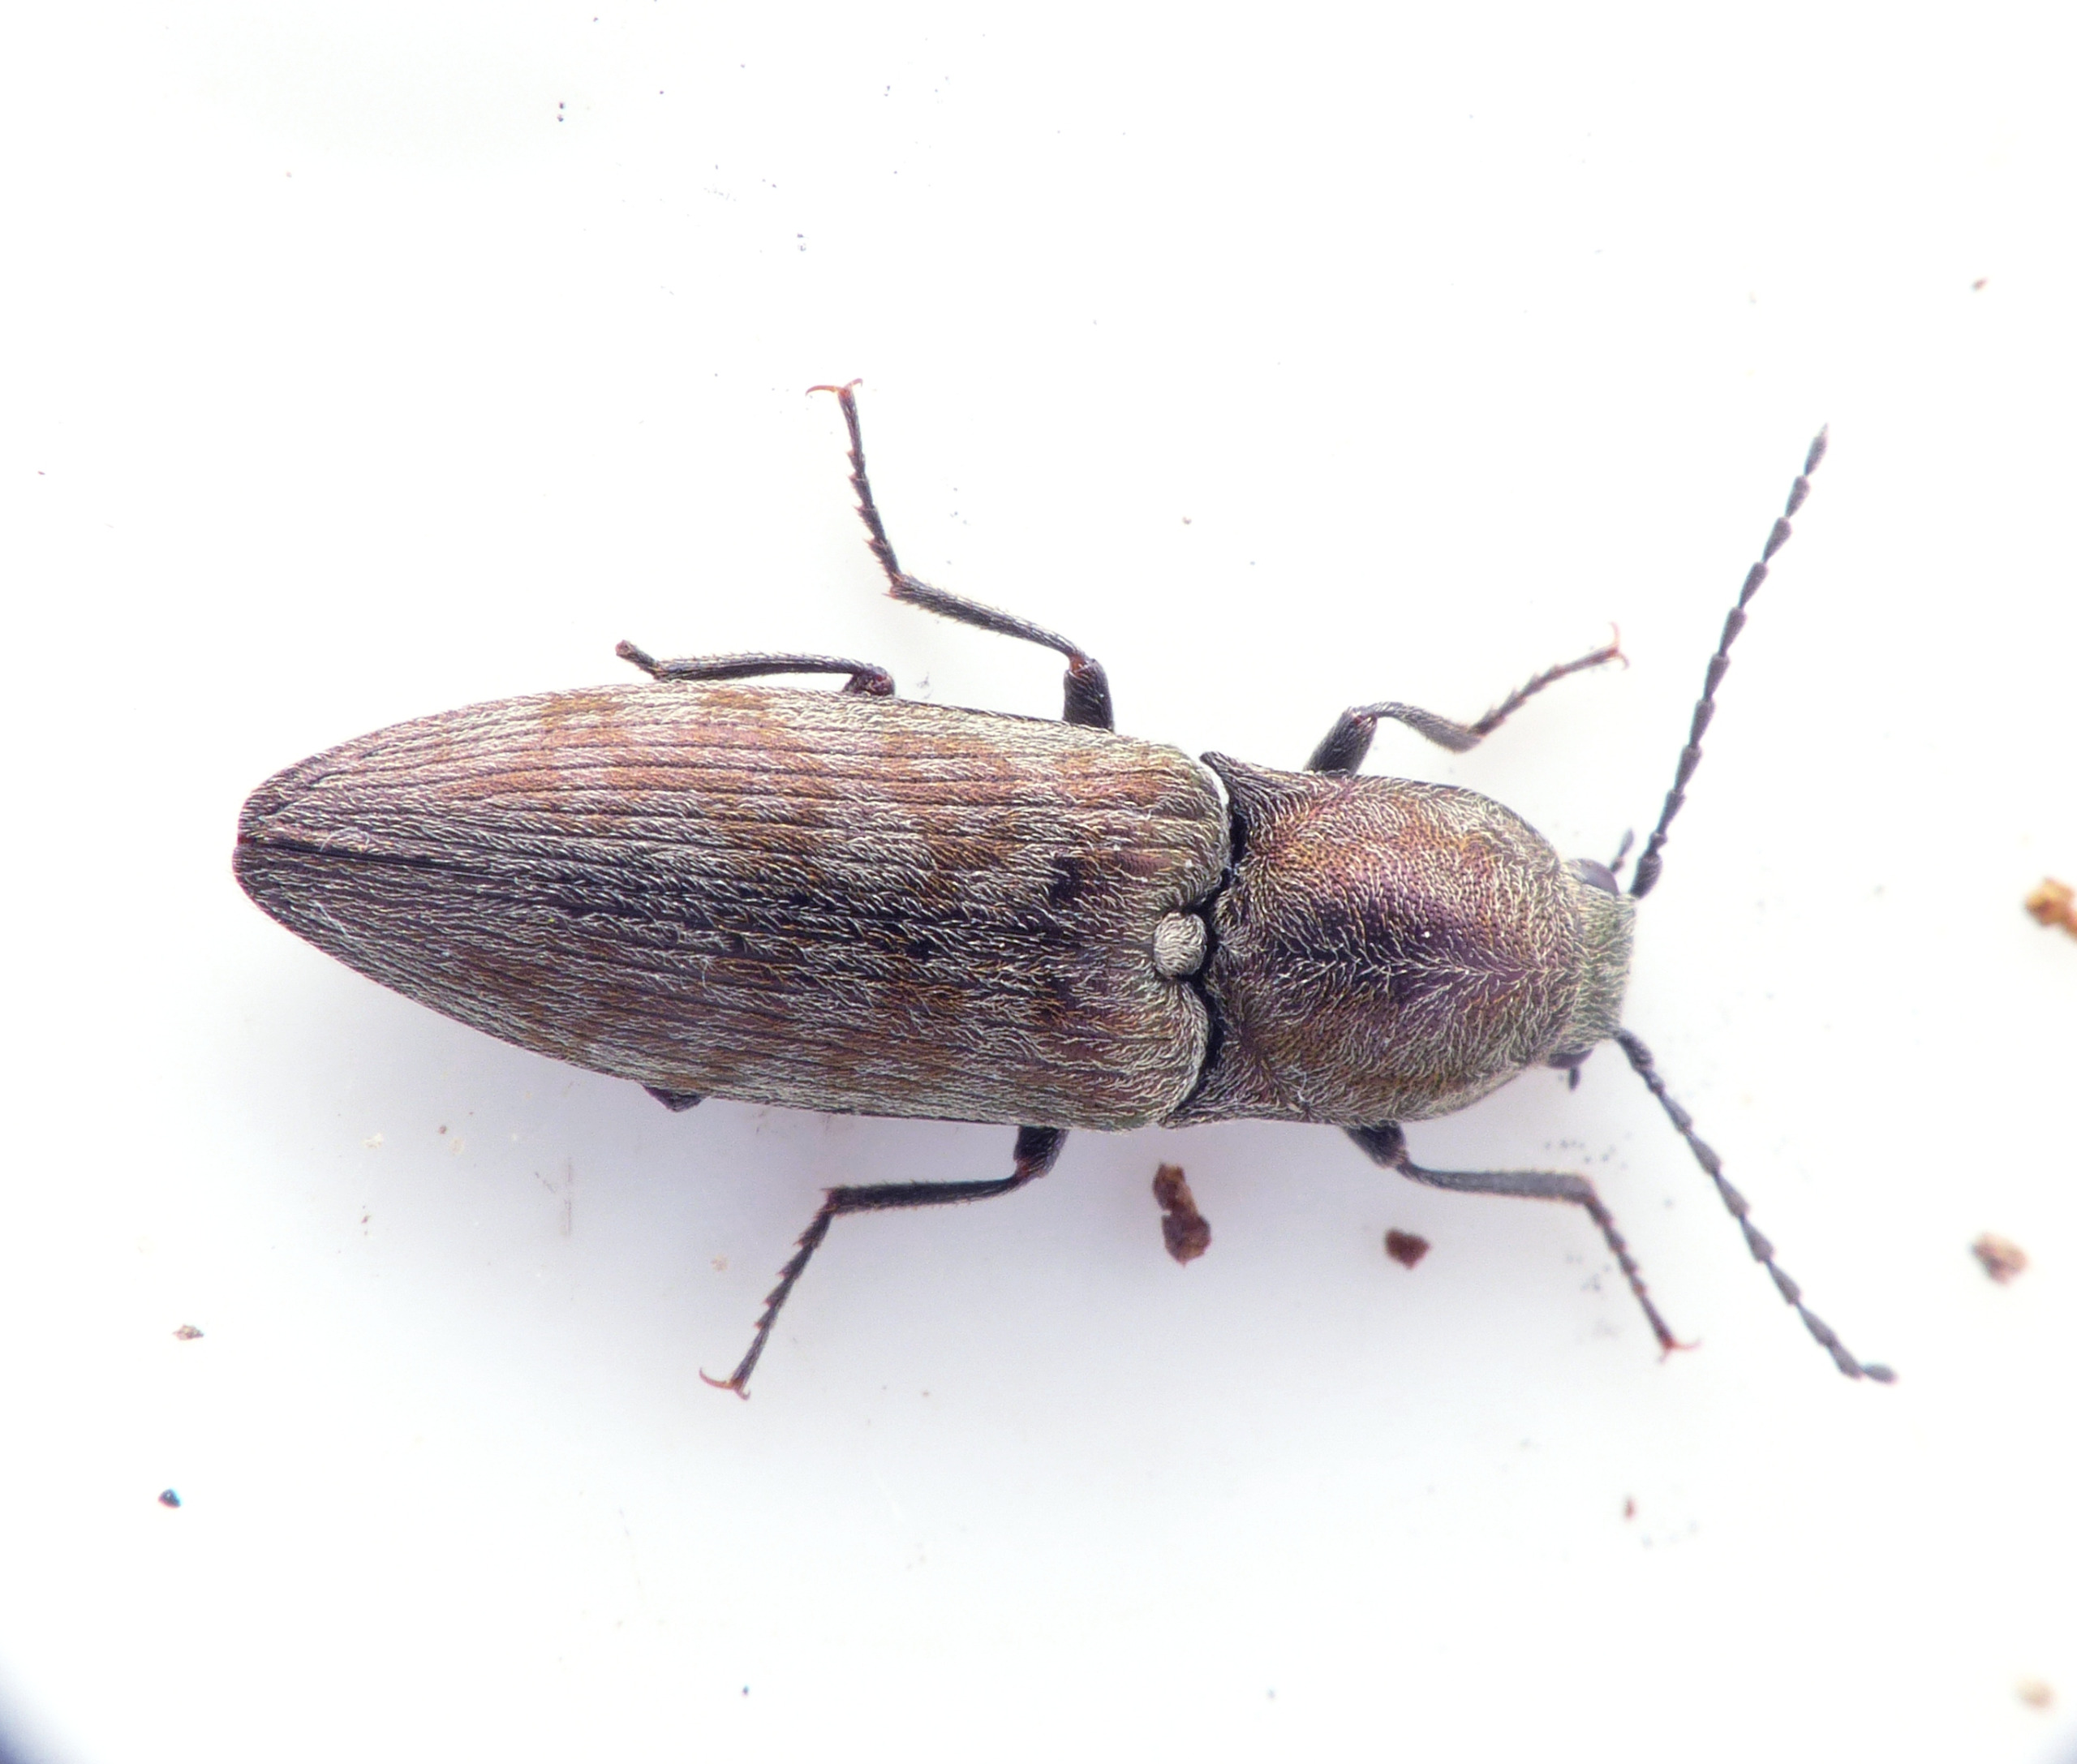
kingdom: Animalia
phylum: Arthropoda
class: Insecta
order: Coleoptera
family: Elateridae
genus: Actenicerus
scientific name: Actenicerus sjaelandicus
